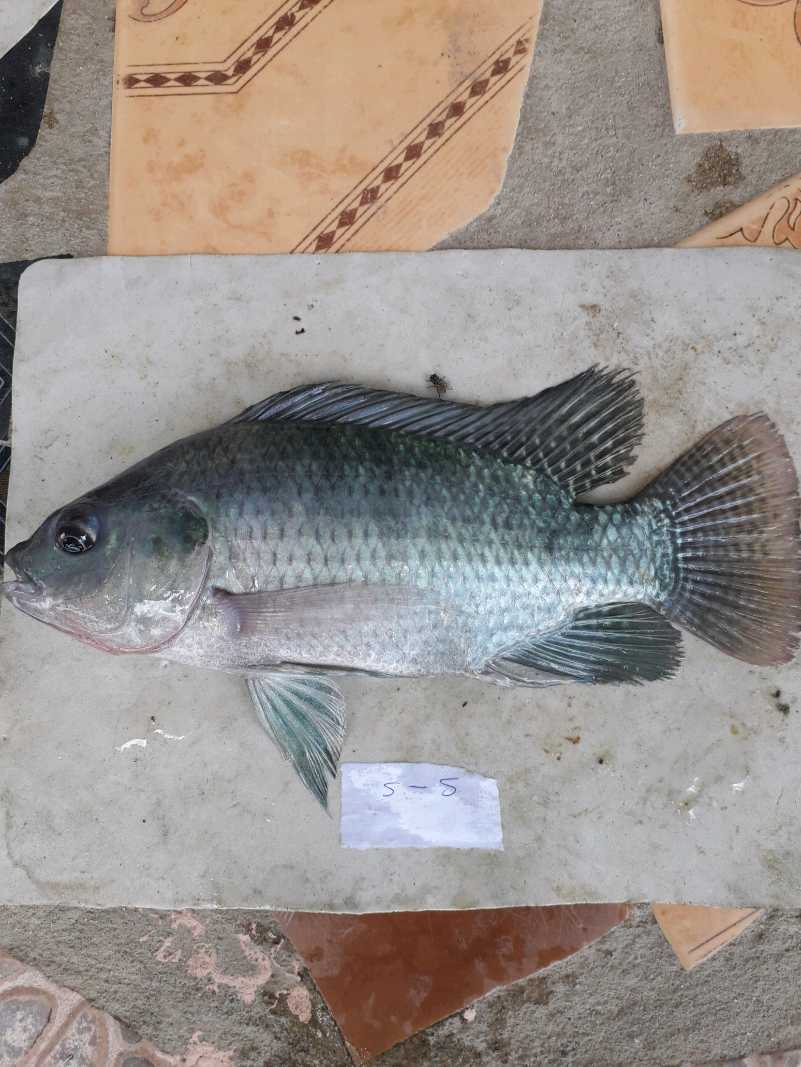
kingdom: Animalia
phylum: Chordata
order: Perciformes
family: Cichlidae
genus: Oreochromis
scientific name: Oreochromis niloticus
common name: Nile tilapia
